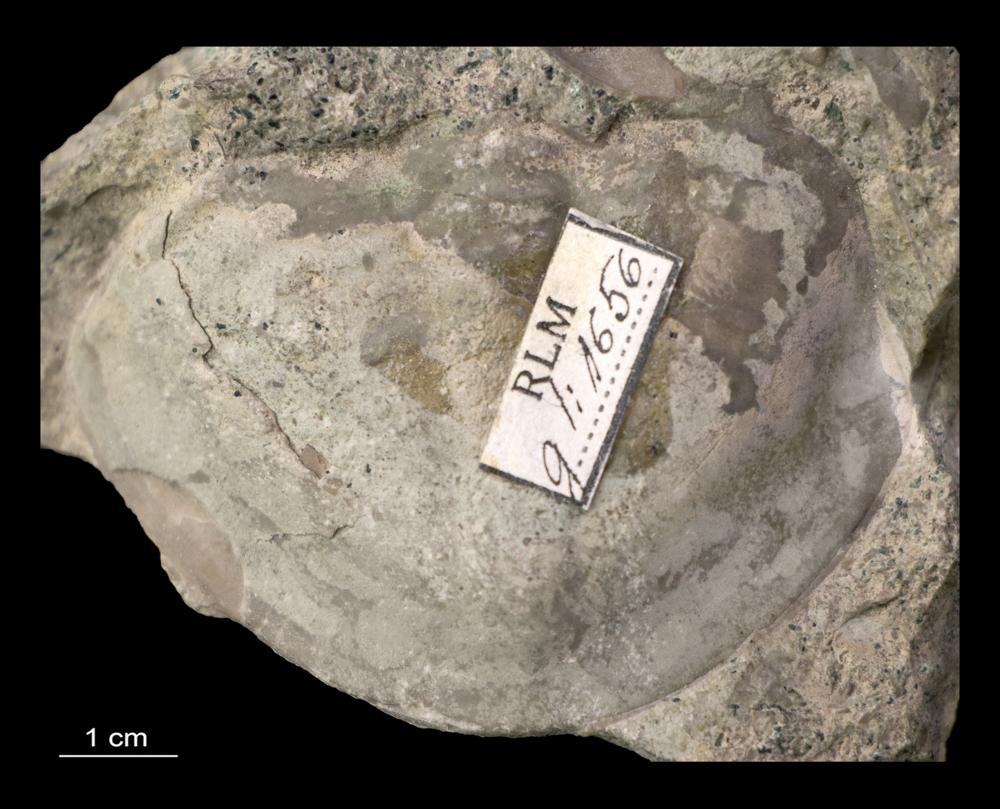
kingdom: Animalia
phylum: Arthropoda
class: Trilobita
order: Asaphida
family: Asaphidae
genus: Megistaspis
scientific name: Megistaspis limbatus
